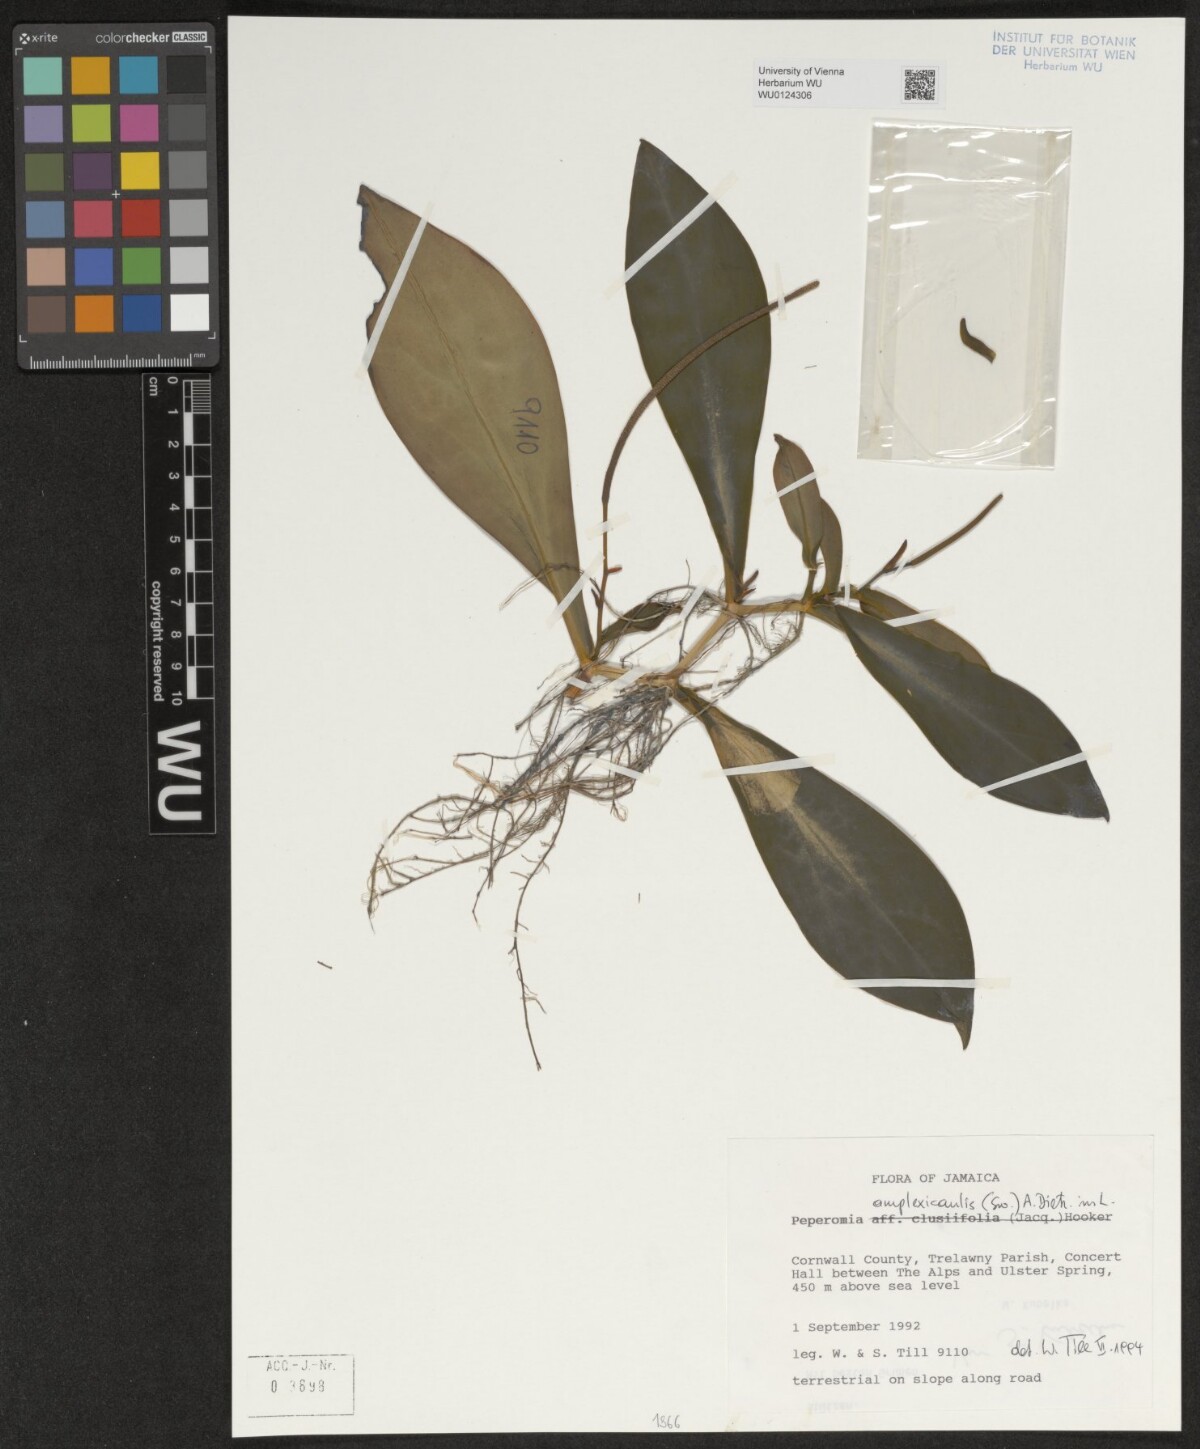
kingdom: Plantae
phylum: Tracheophyta
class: Magnoliopsida
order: Piperales
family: Piperaceae
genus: Peperomia
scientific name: Peperomia amplexicaulis
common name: Jackie's saddle
